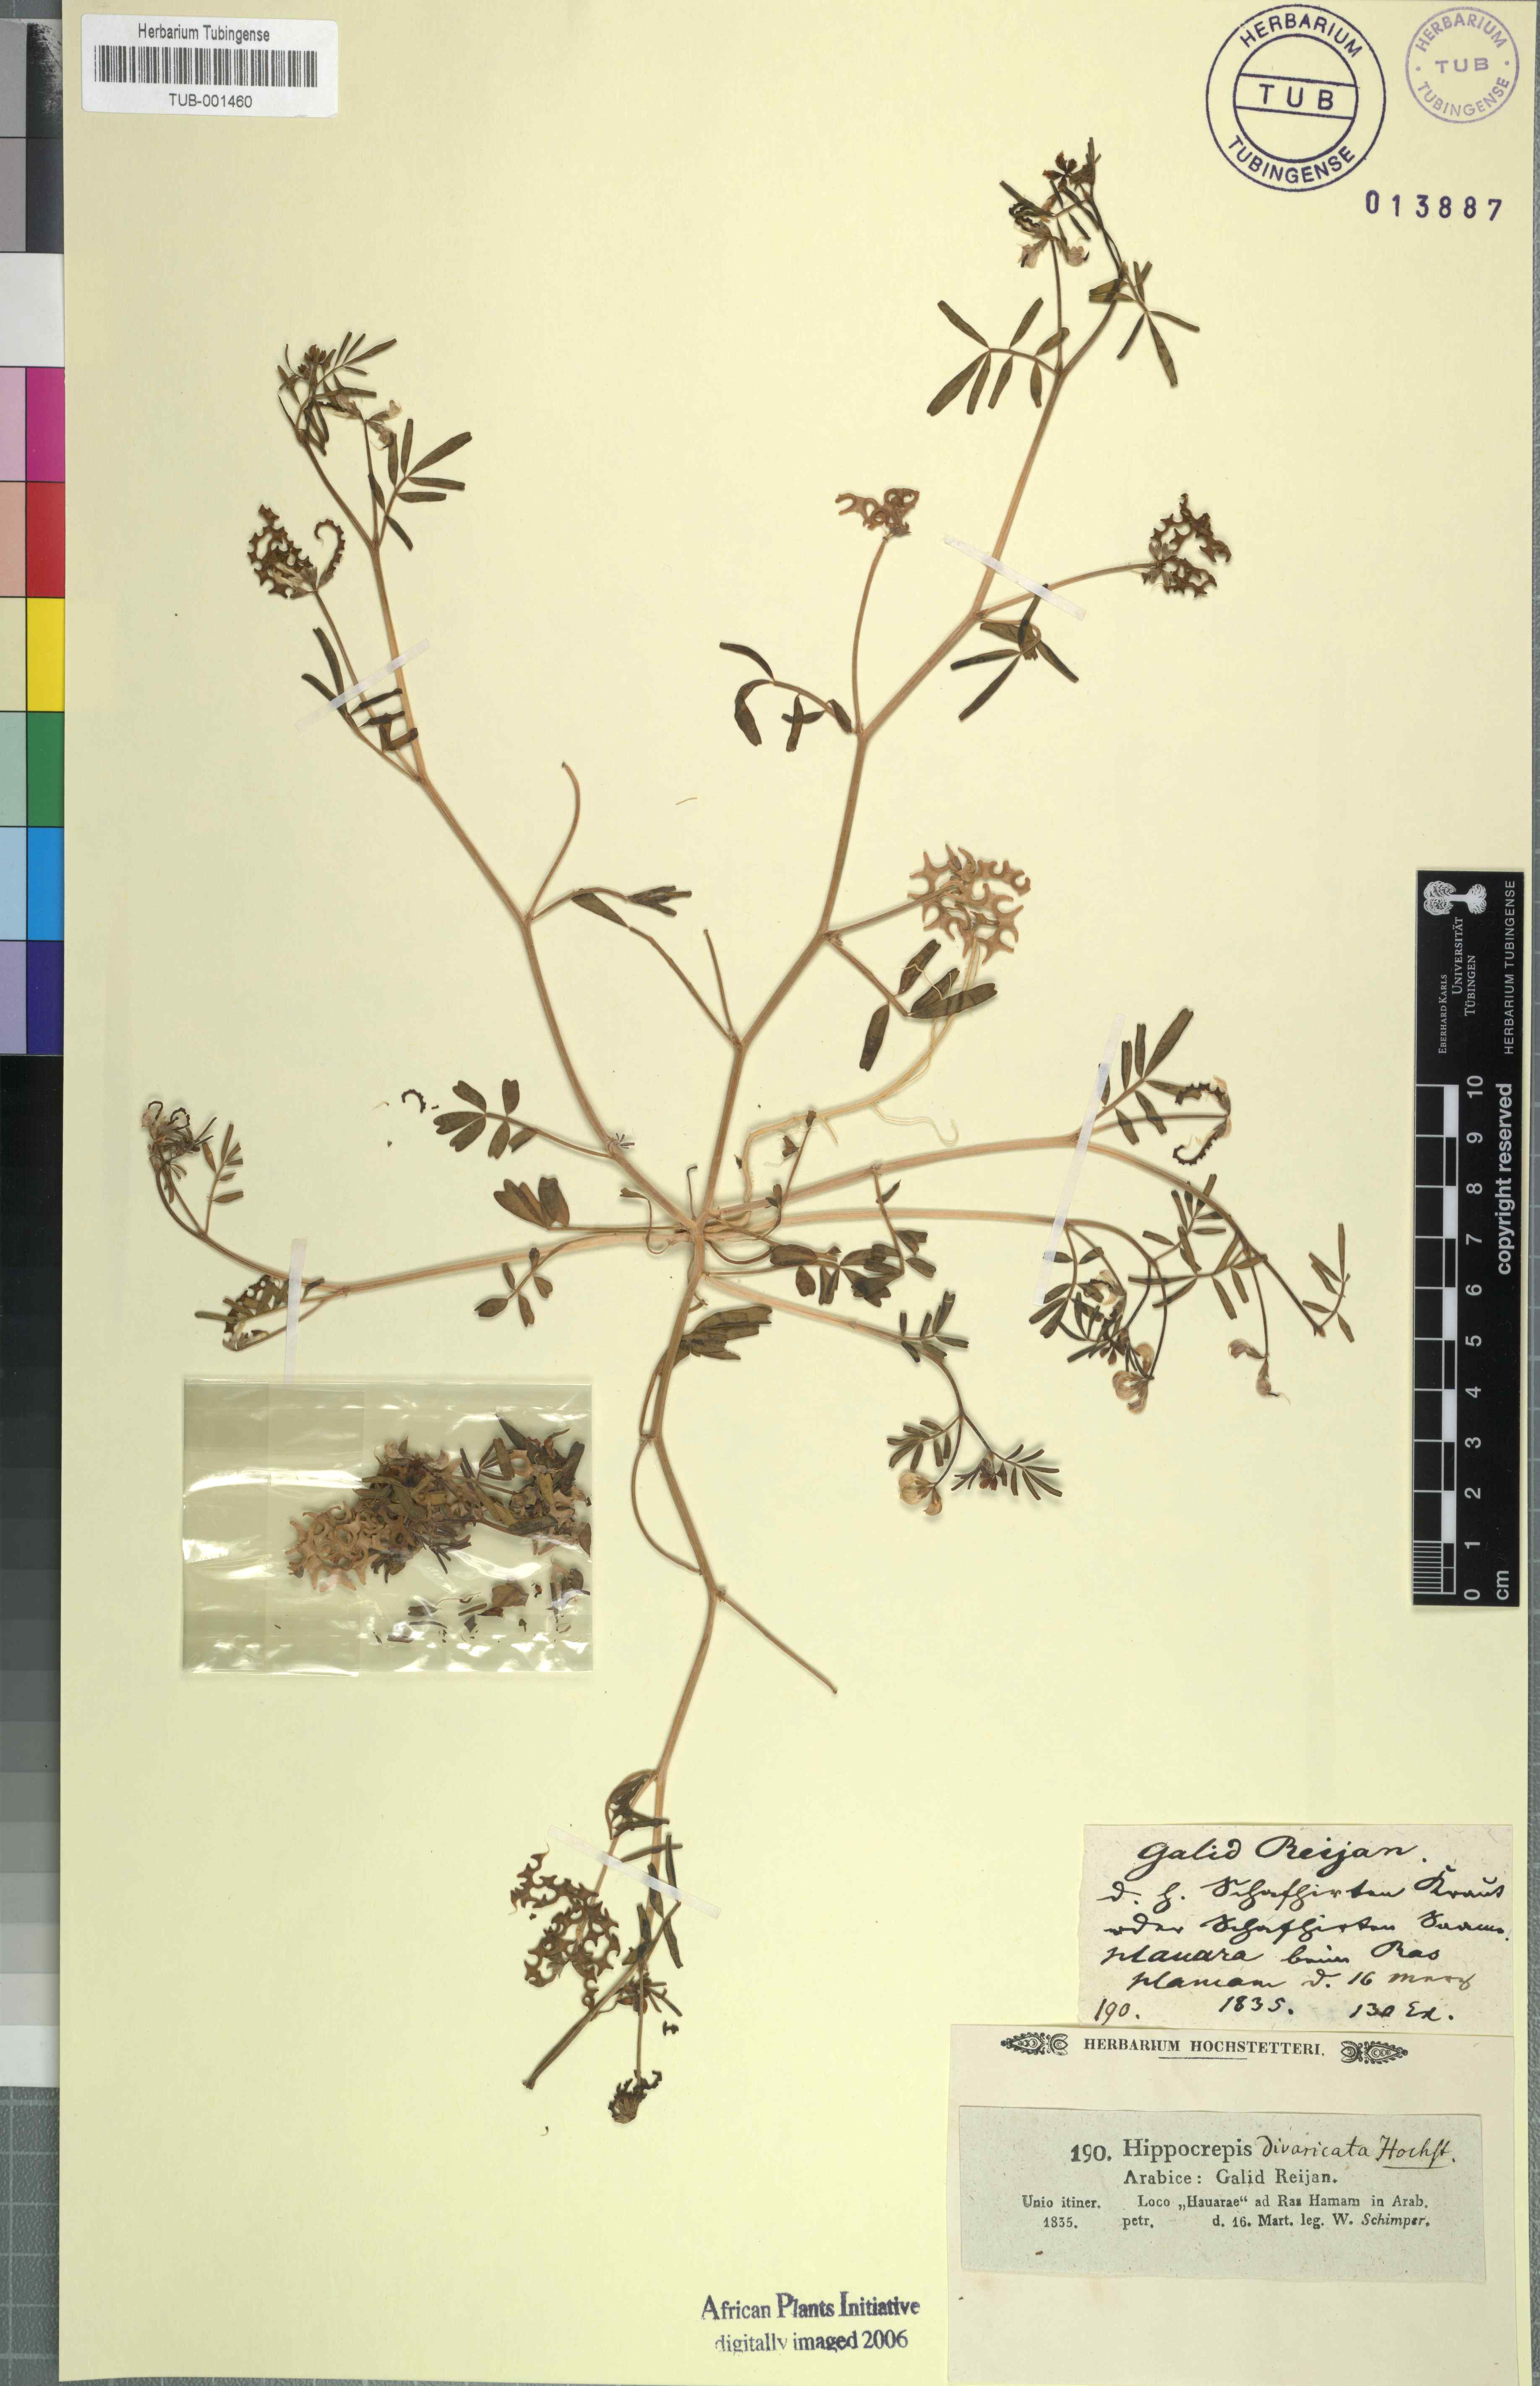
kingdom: Plantae
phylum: Tracheophyta
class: Magnoliopsida
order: Fabales
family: Fabaceae
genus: Hippocrepis
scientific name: Hippocrepis areolata
